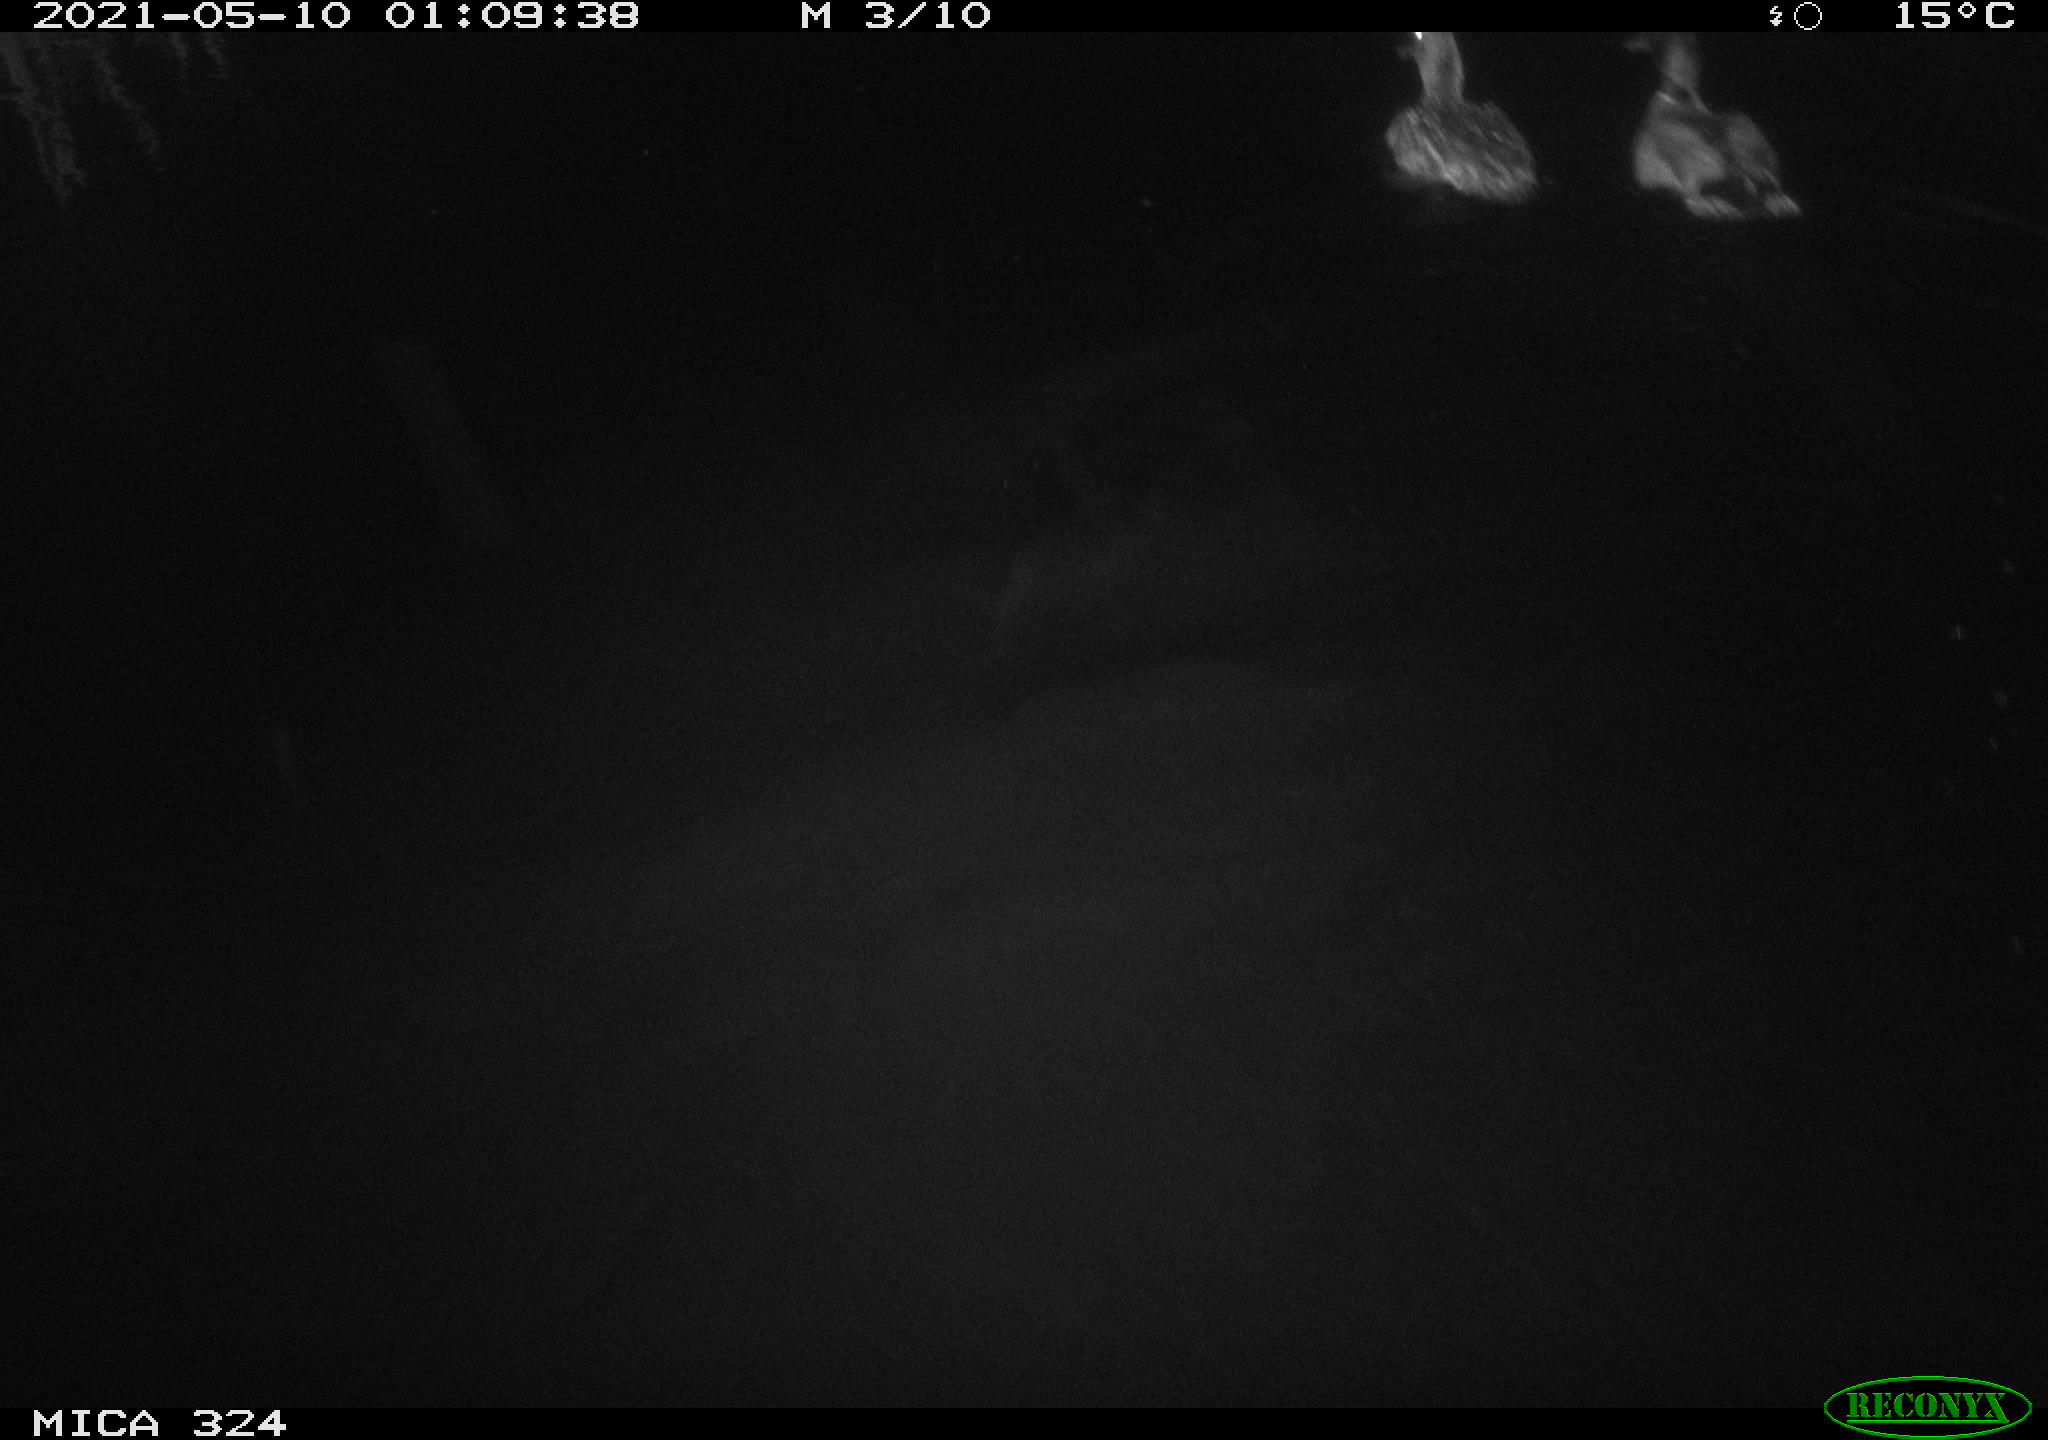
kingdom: Animalia
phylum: Chordata
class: Aves
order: Anseriformes
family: Anatidae
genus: Anas
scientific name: Anas platyrhynchos
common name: Mallard
